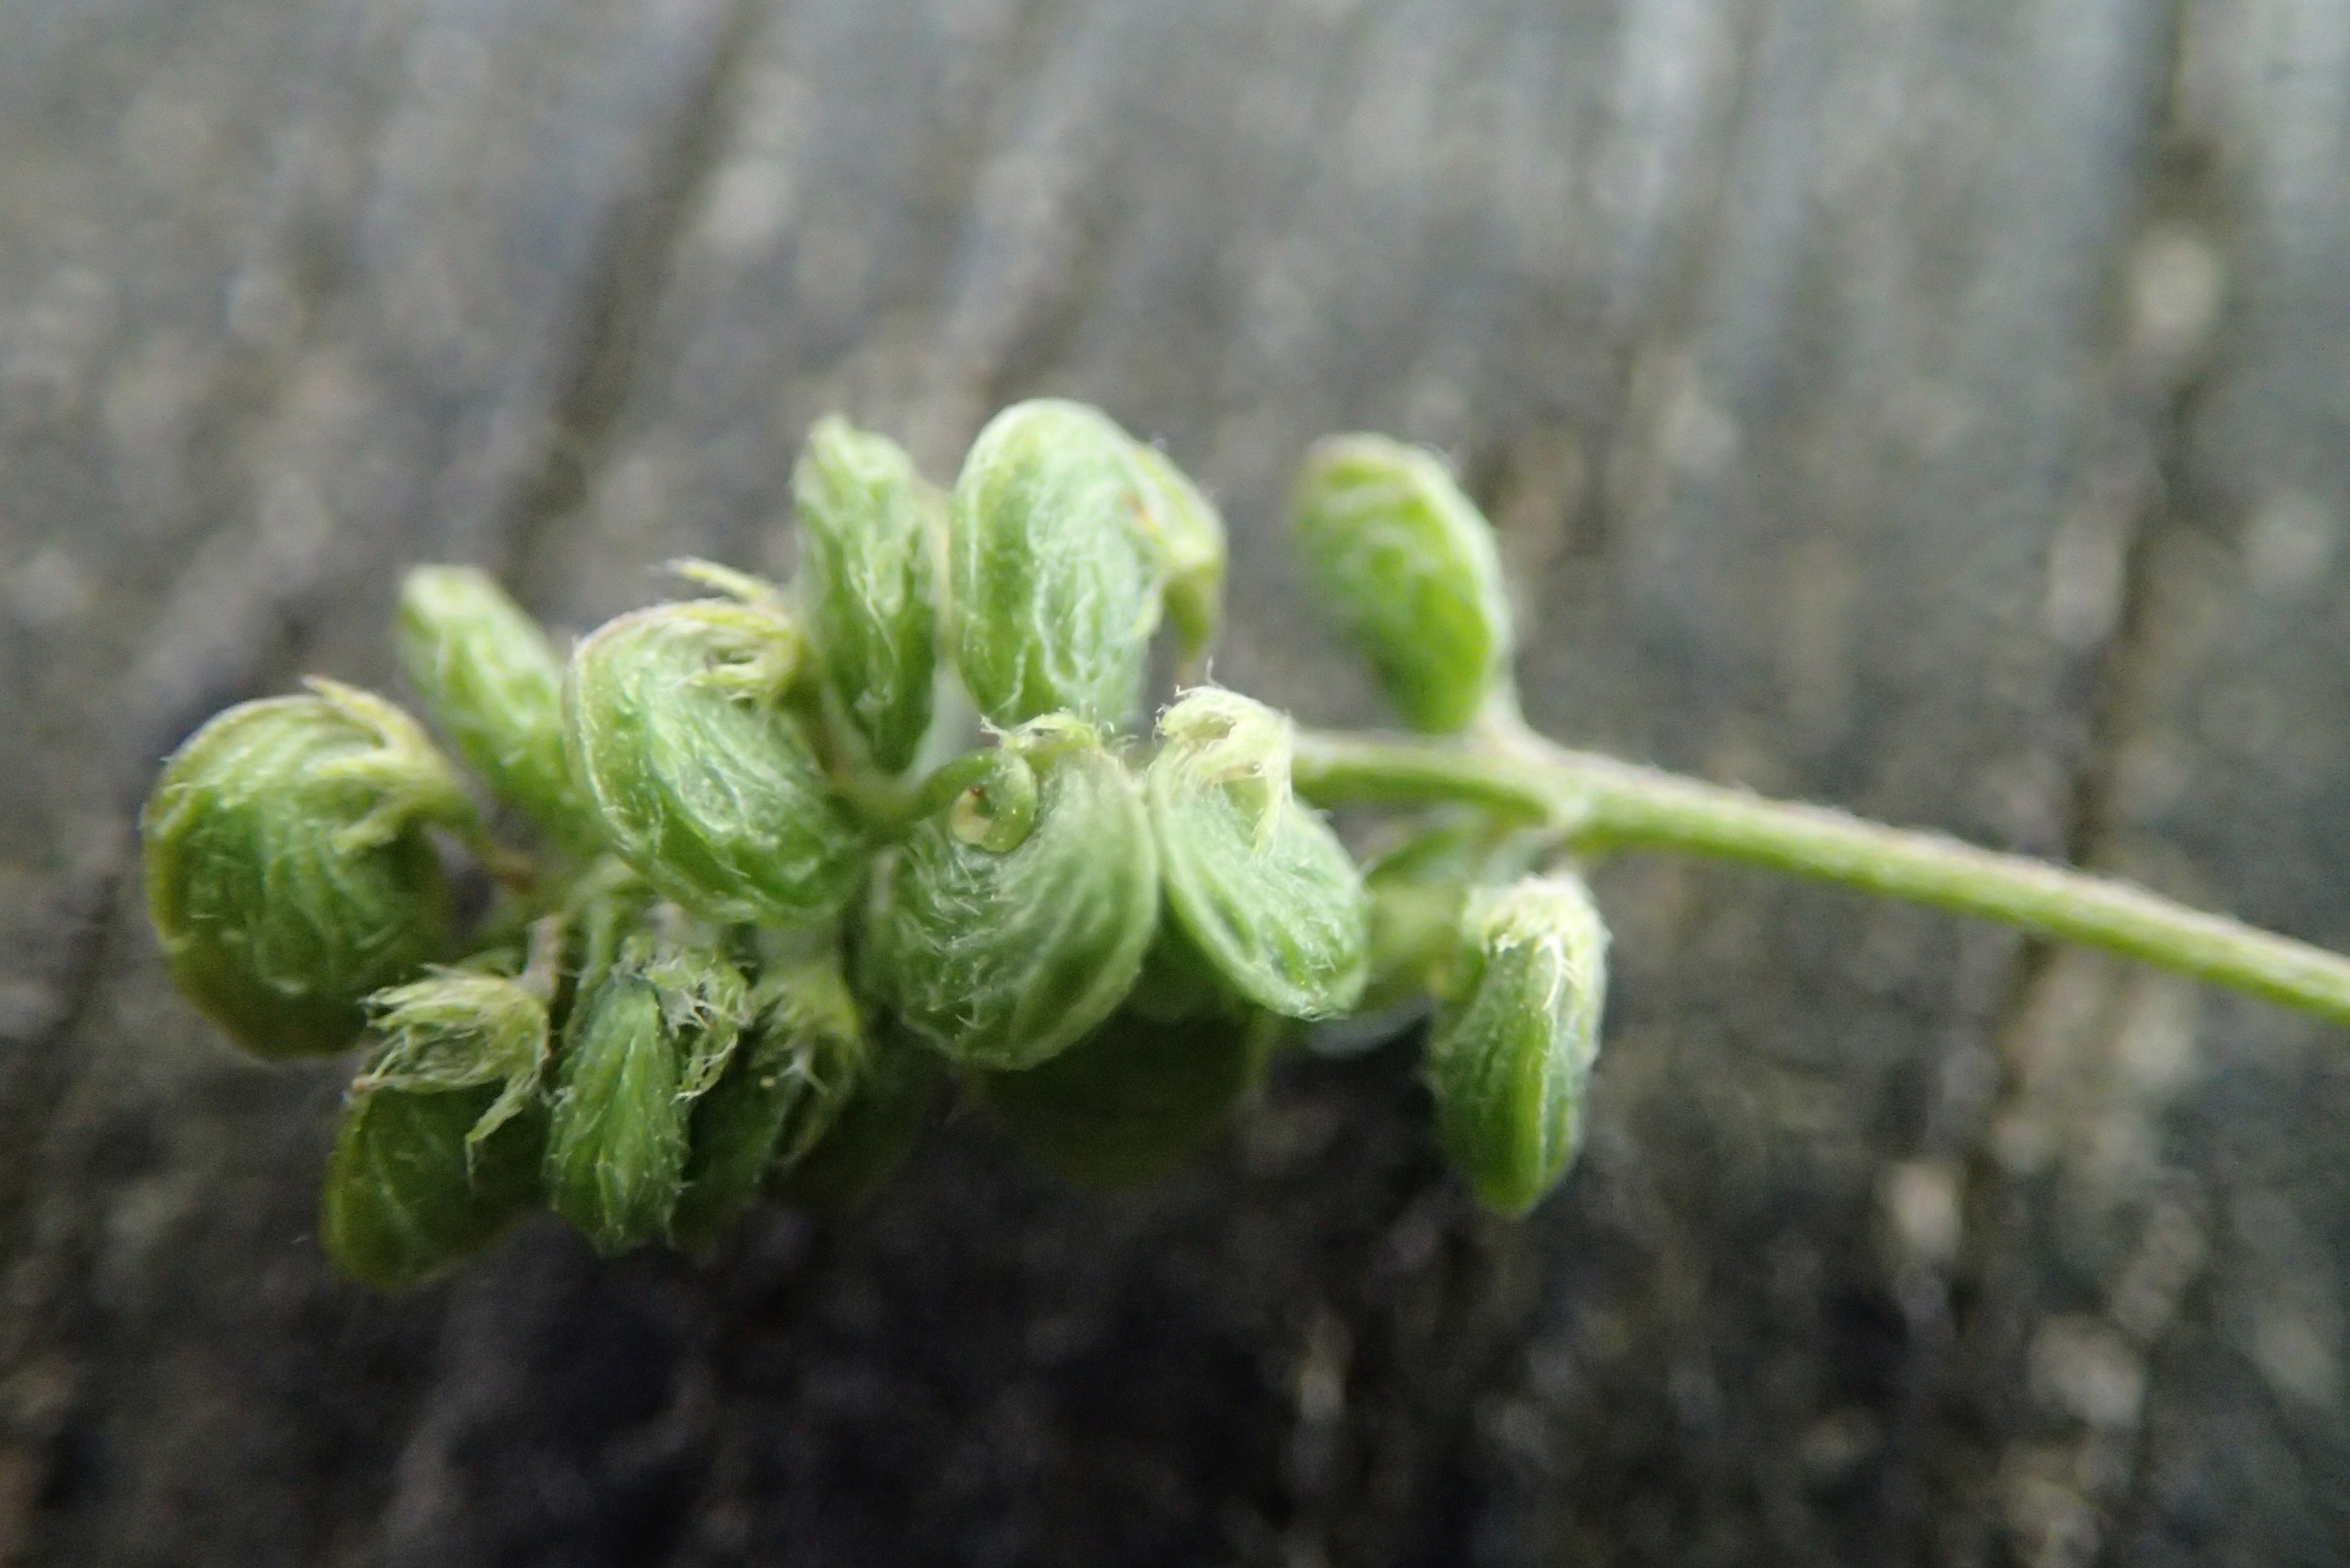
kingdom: Plantae
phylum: Tracheophyta
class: Magnoliopsida
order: Fabales
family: Fabaceae
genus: Medicago
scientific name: Medicago lupulina
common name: Humle-sneglebælg
